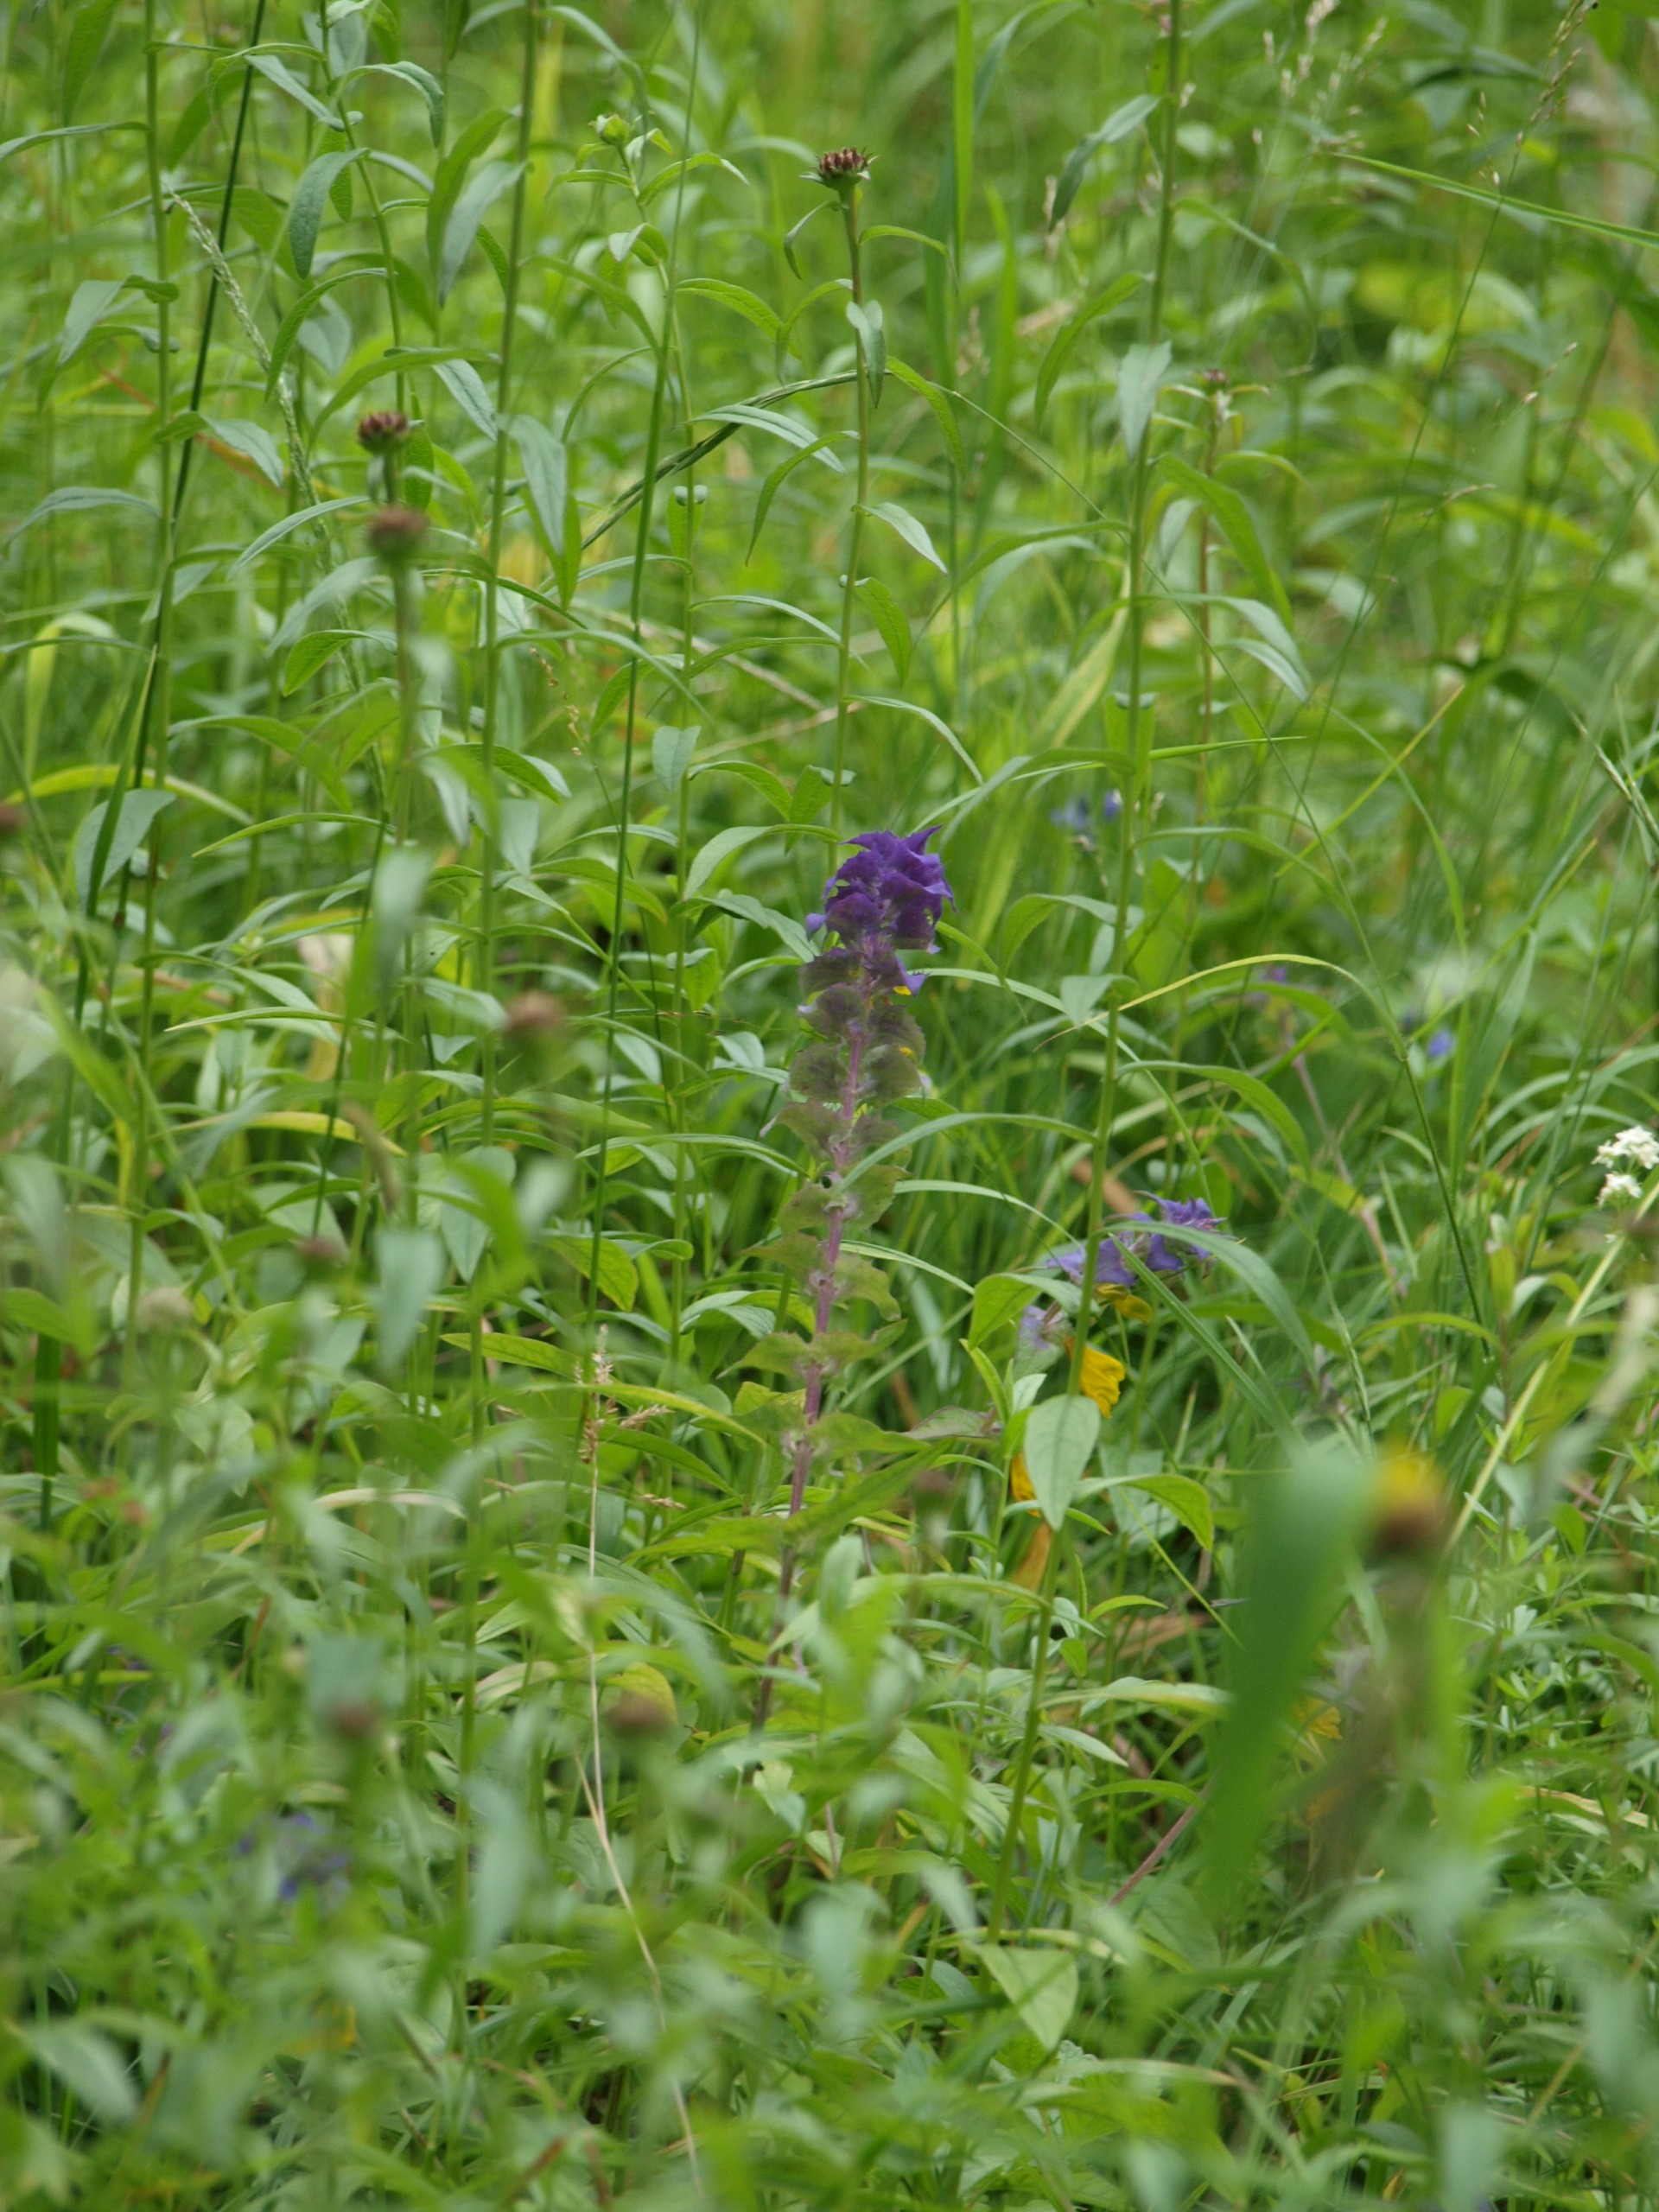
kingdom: Plantae
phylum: Tracheophyta
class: Magnoliopsida
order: Lamiales
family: Orobanchaceae
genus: Melampyrum
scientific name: Melampyrum nemorosum
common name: Blåtoppet kohvede
